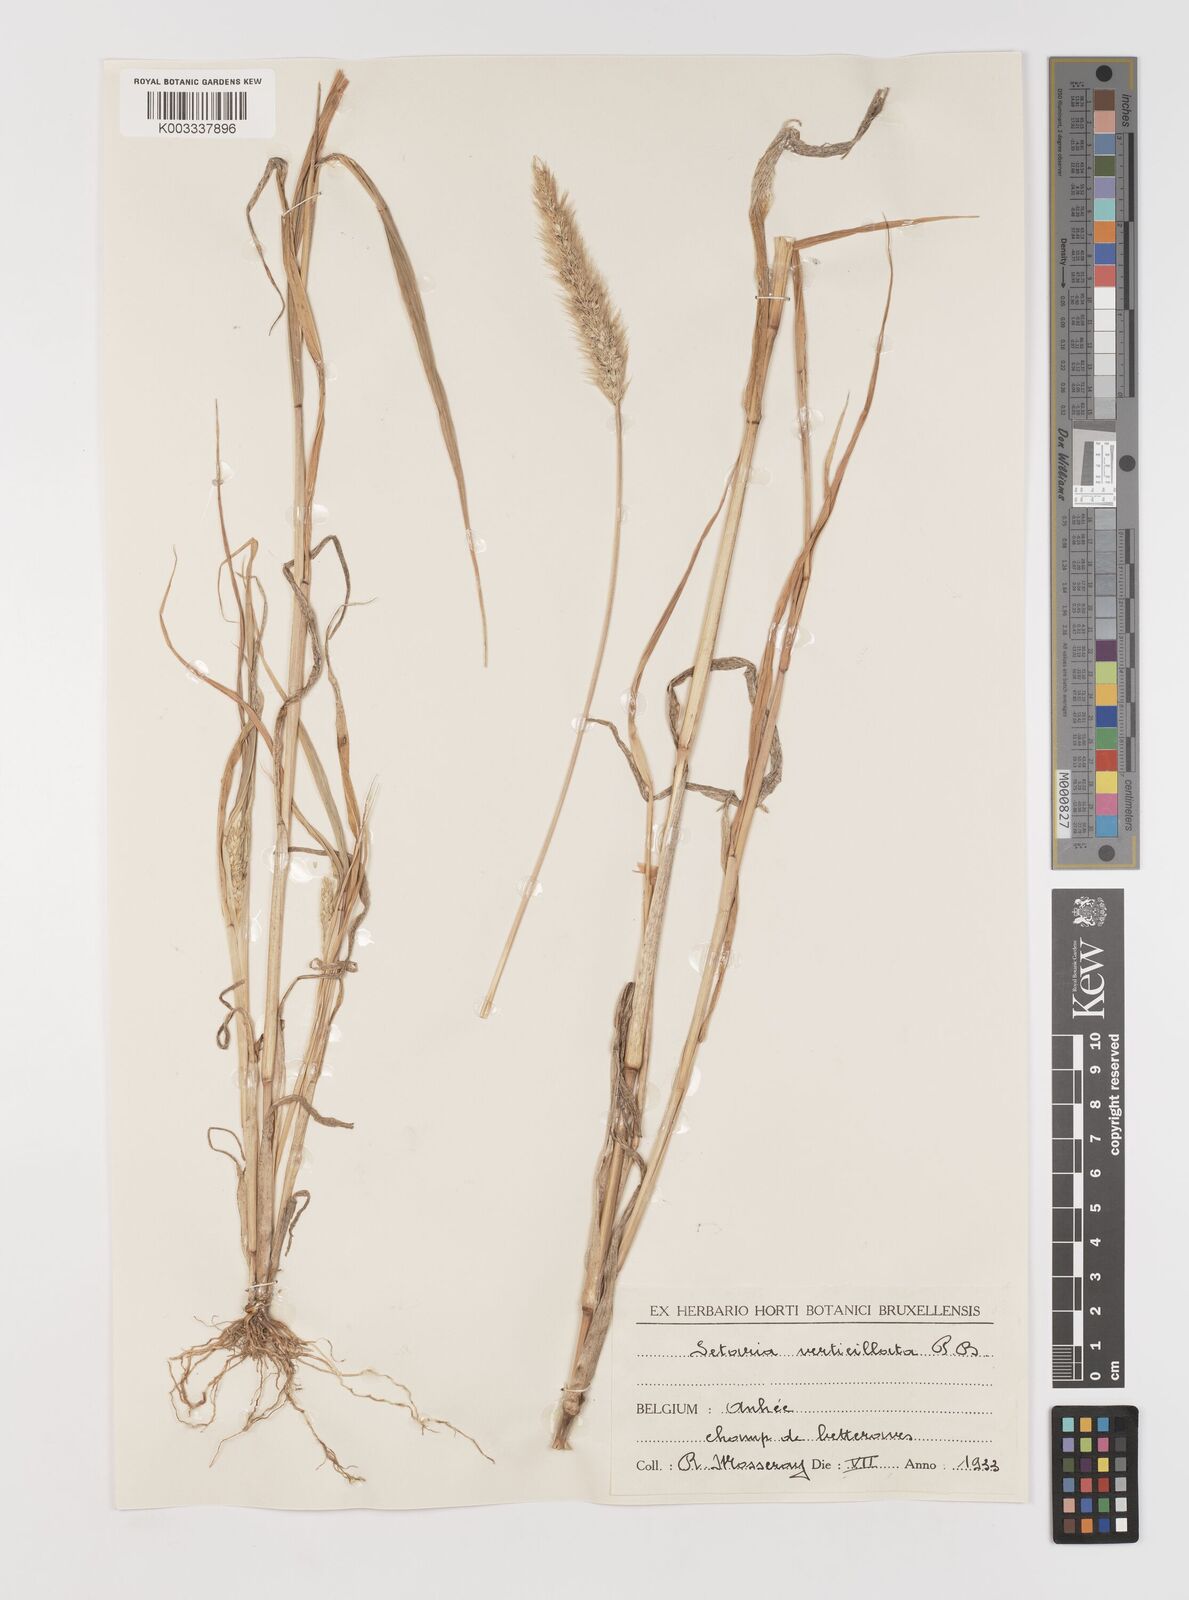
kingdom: Plantae
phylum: Tracheophyta
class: Liliopsida
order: Poales
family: Poaceae
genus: Setaria
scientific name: Setaria viridis
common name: Green bristlegrass
